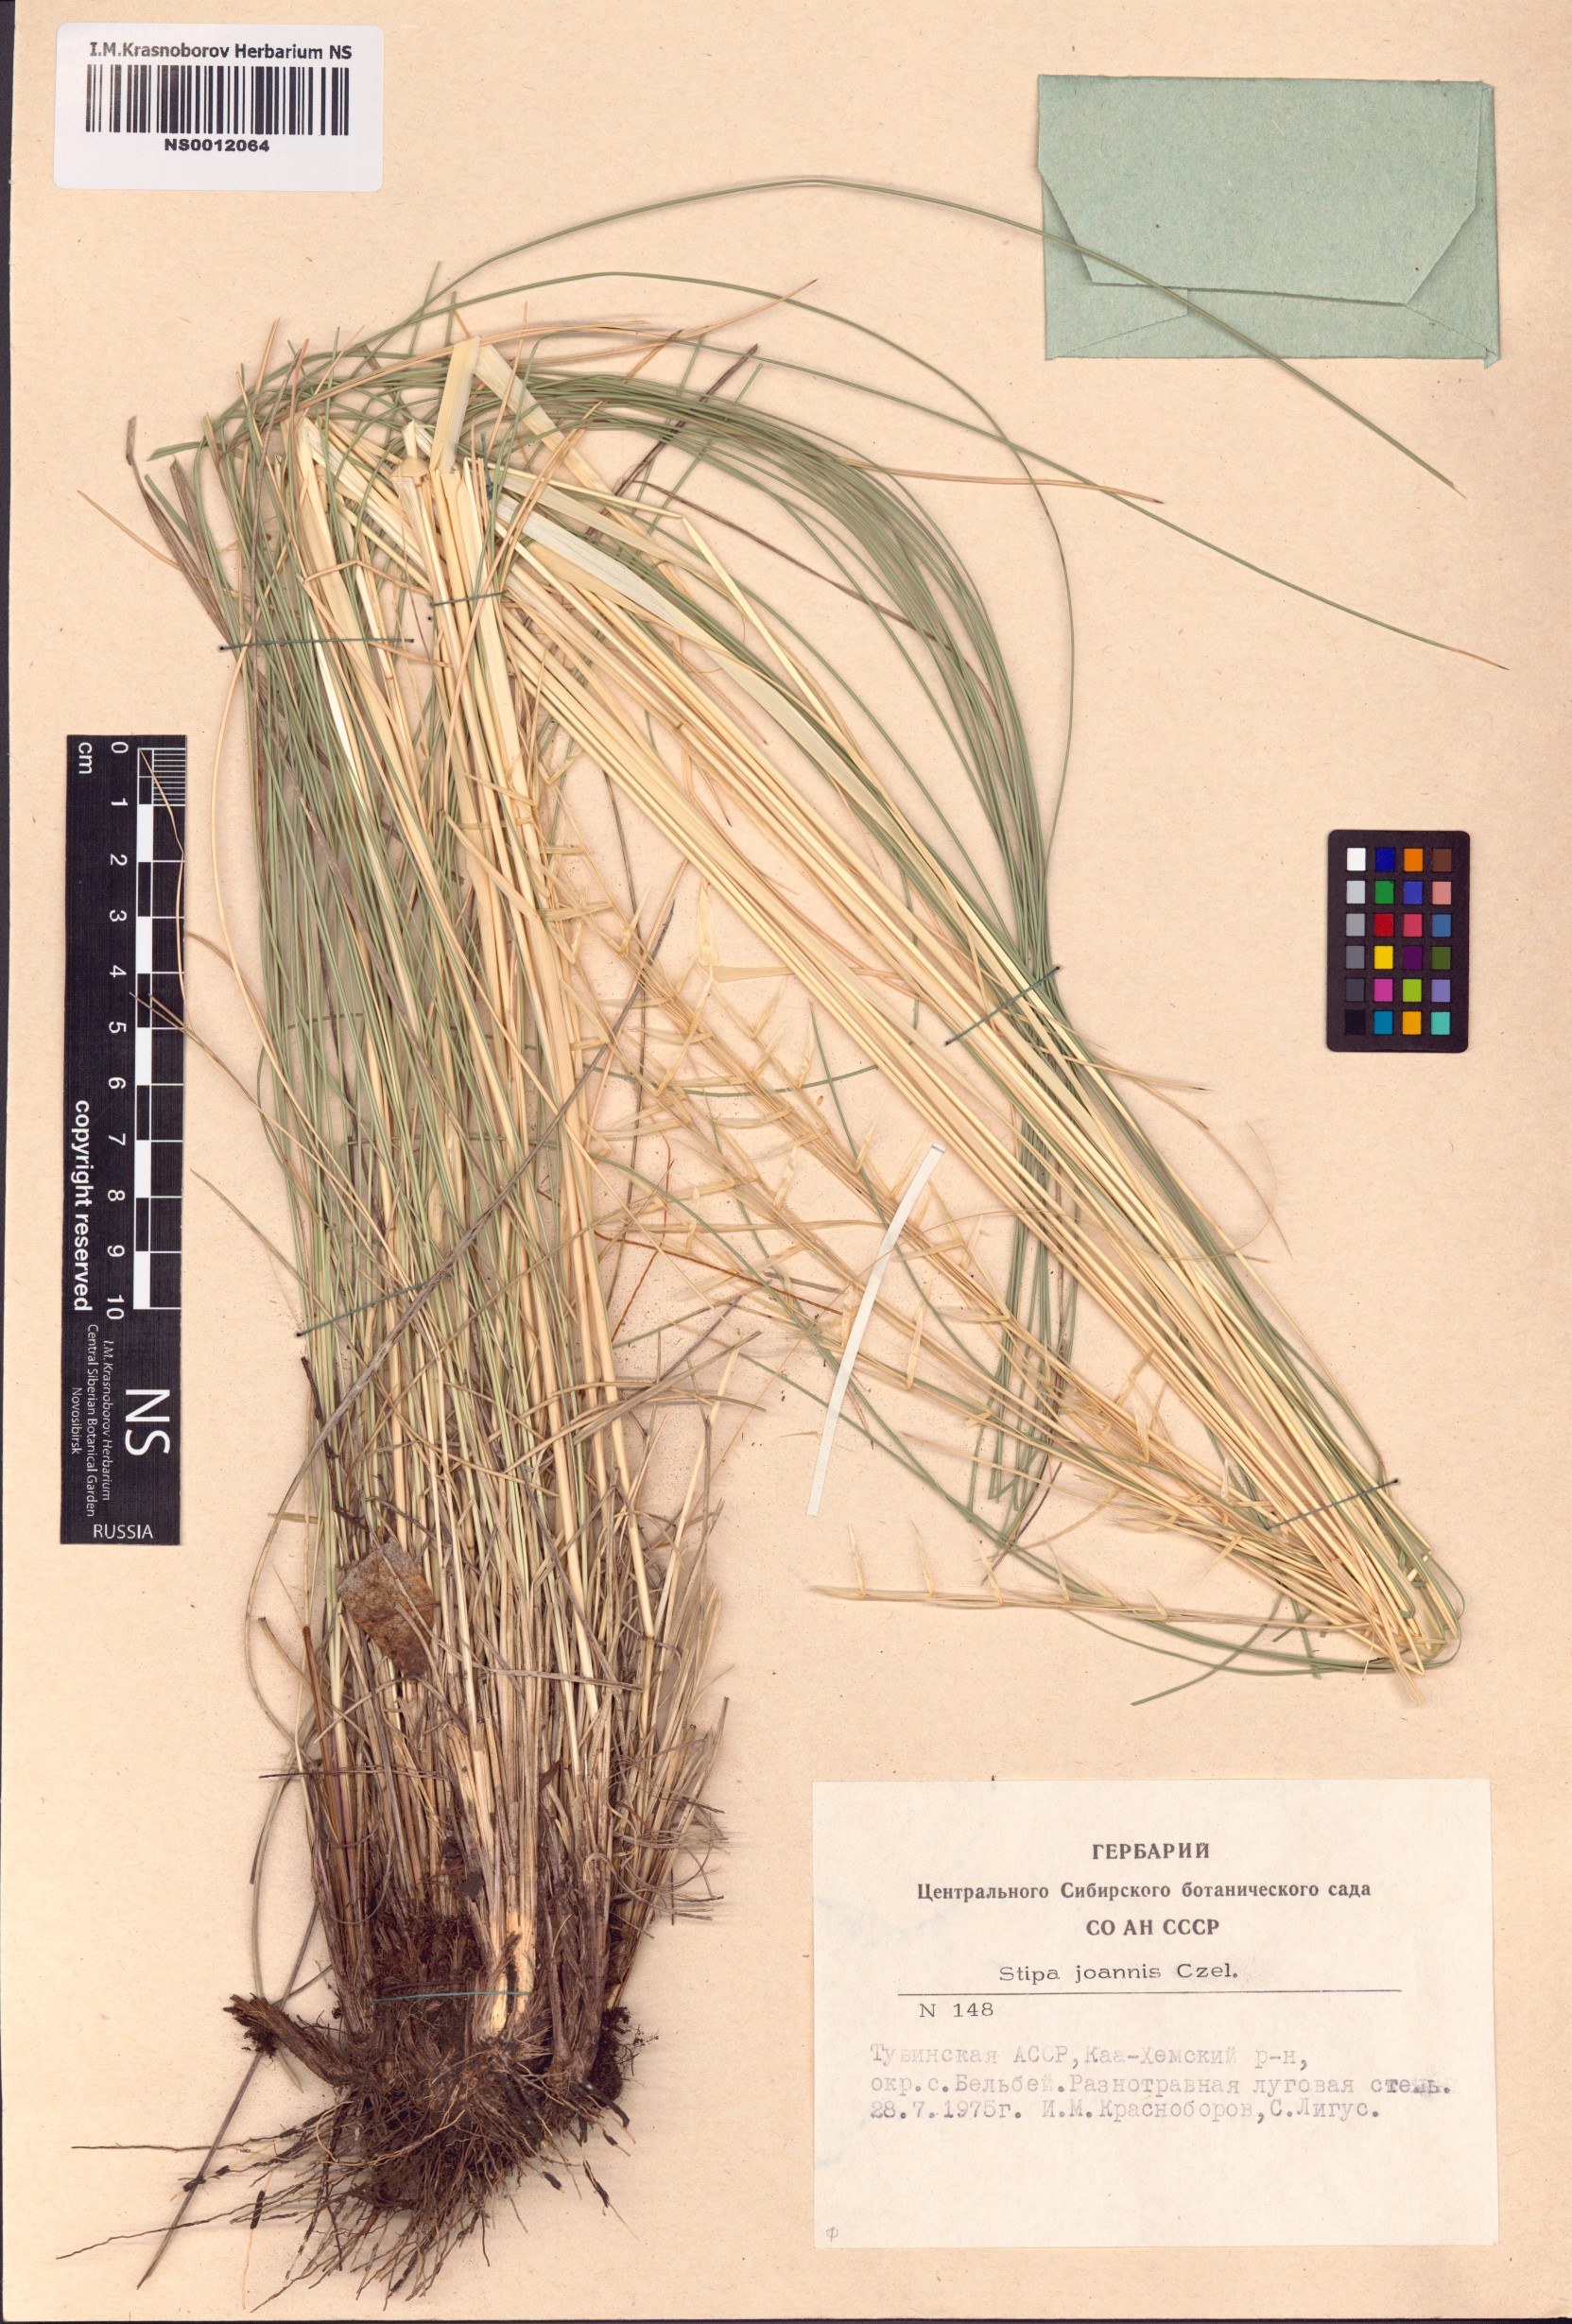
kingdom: Plantae
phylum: Tracheophyta
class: Liliopsida
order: Poales
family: Poaceae
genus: Stipa
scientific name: Stipa pennata
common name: European feather grass
